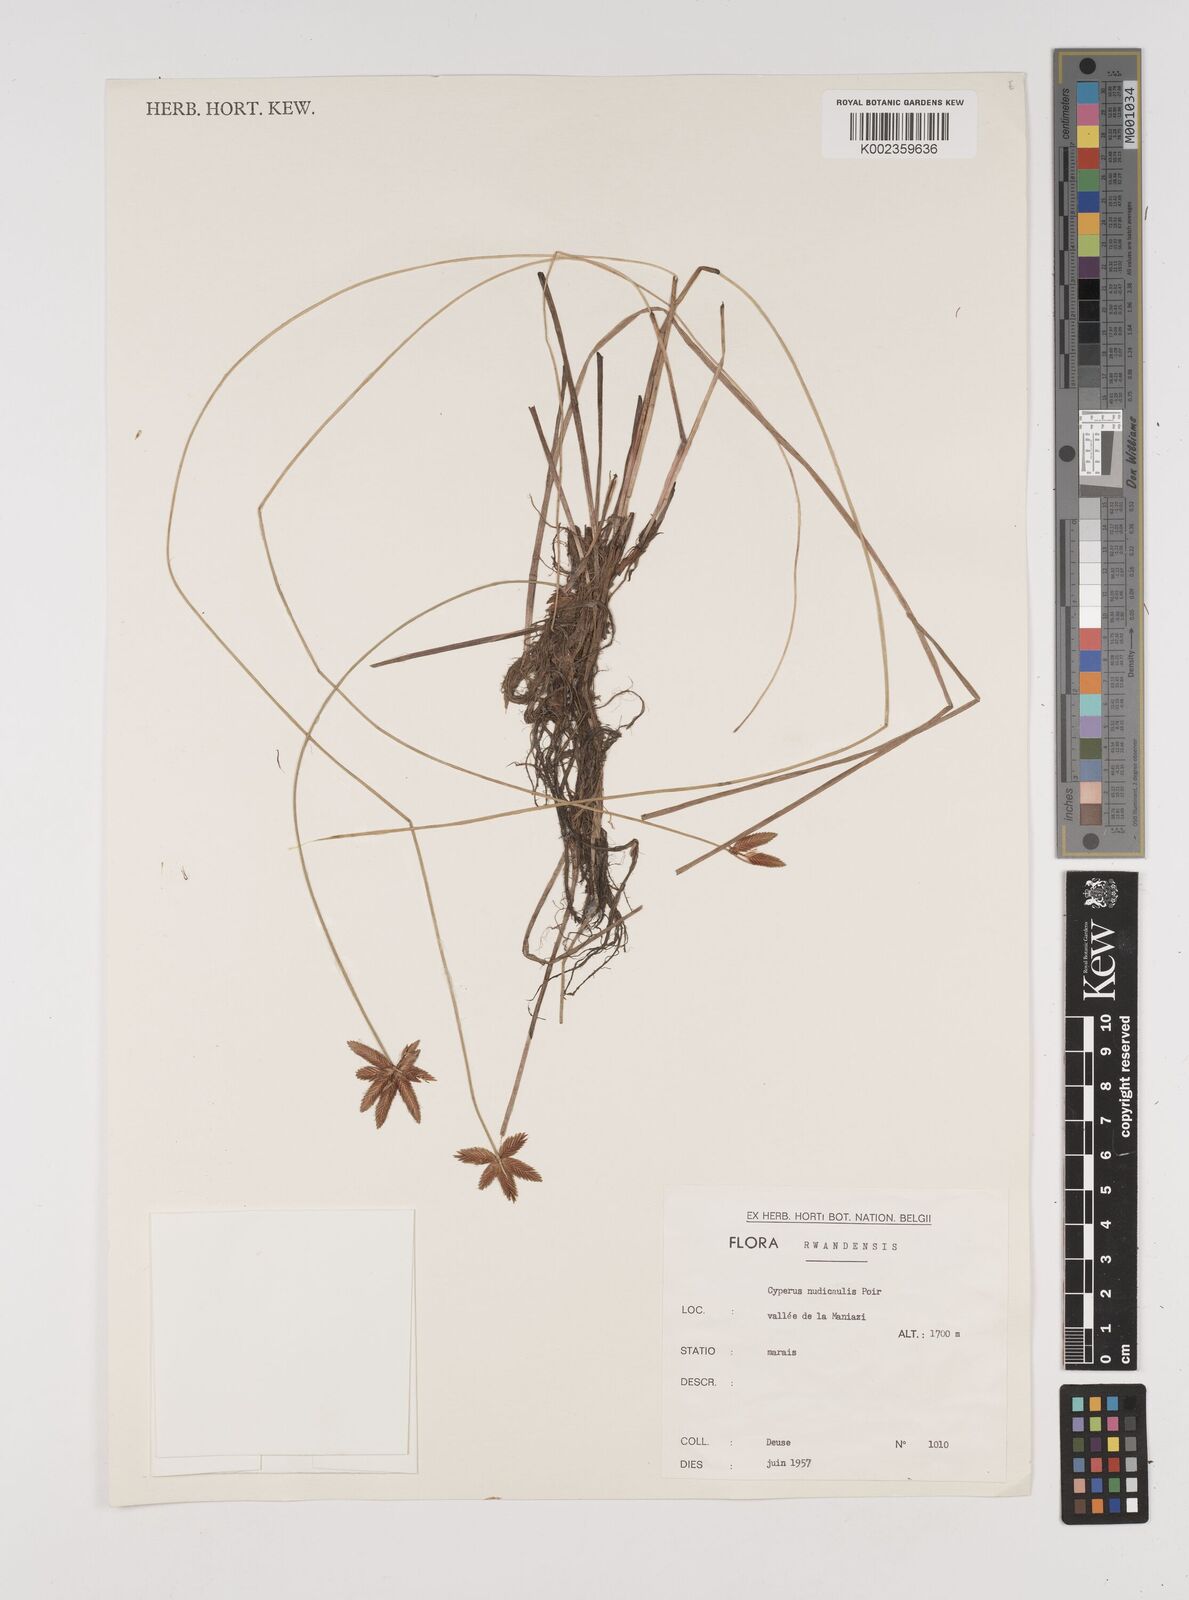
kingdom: Plantae
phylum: Tracheophyta
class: Liliopsida
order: Poales
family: Cyperaceae
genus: Cyperus
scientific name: Cyperus pectinatus
